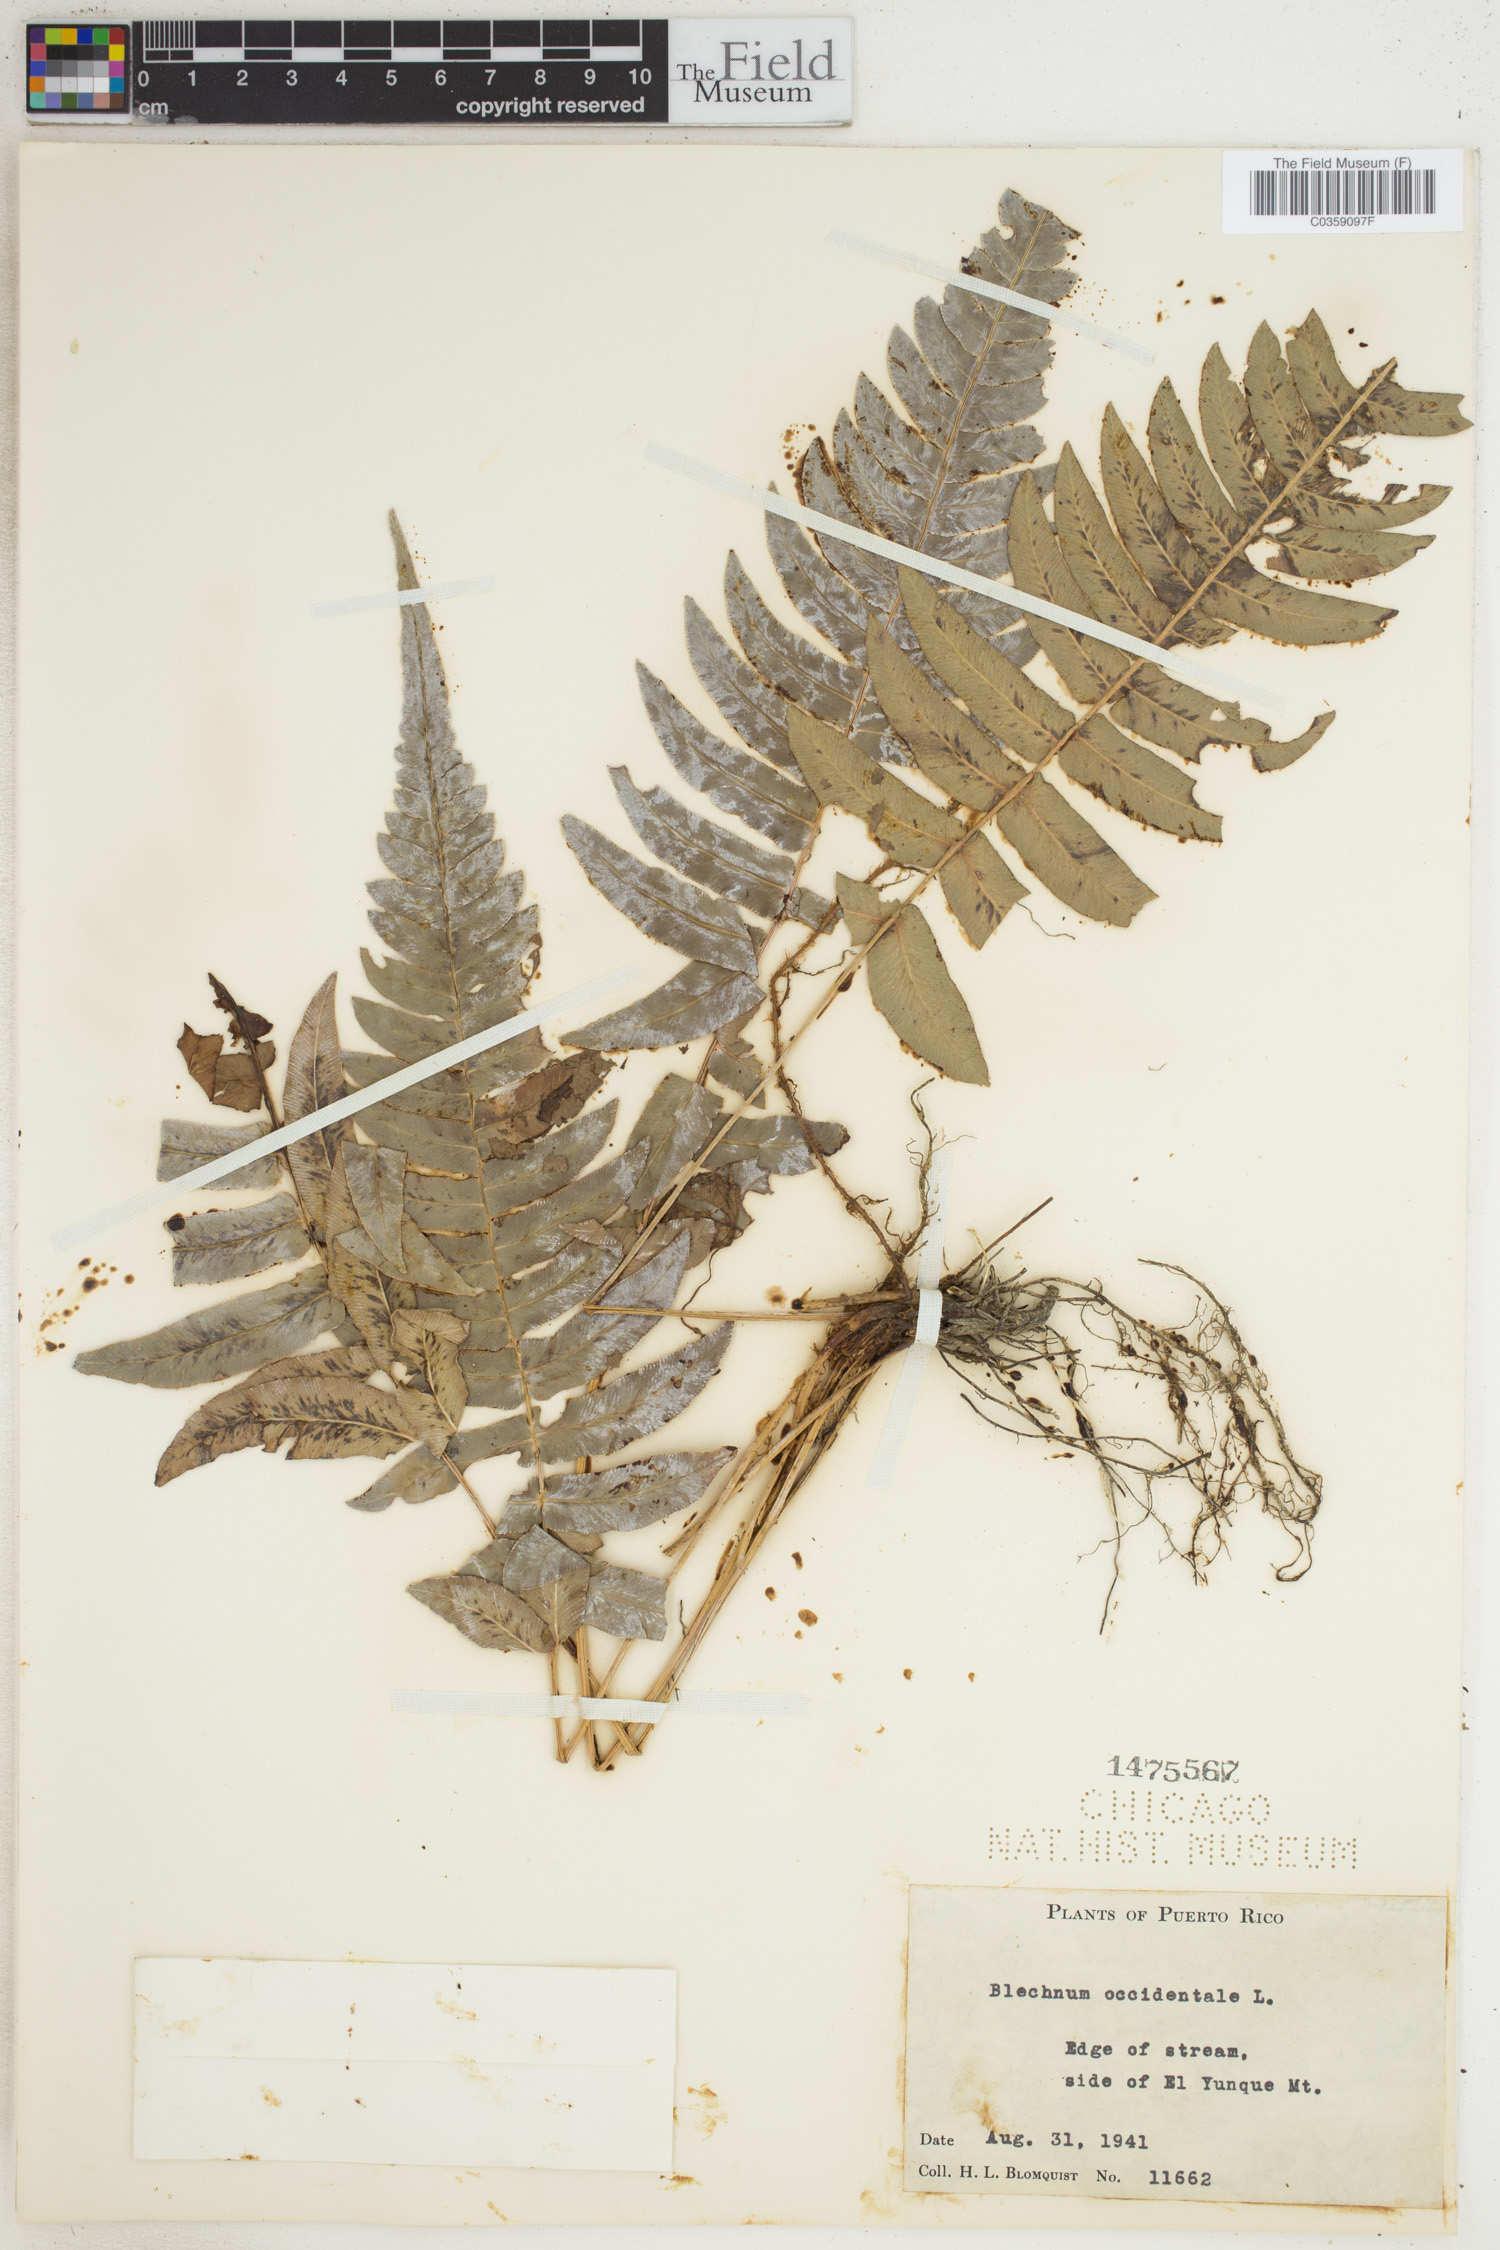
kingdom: Plantae
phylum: Tracheophyta
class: Polypodiopsida
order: Polypodiales
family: Blechnaceae
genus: Blechnum
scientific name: Blechnum occidentale
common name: Hammock fern
